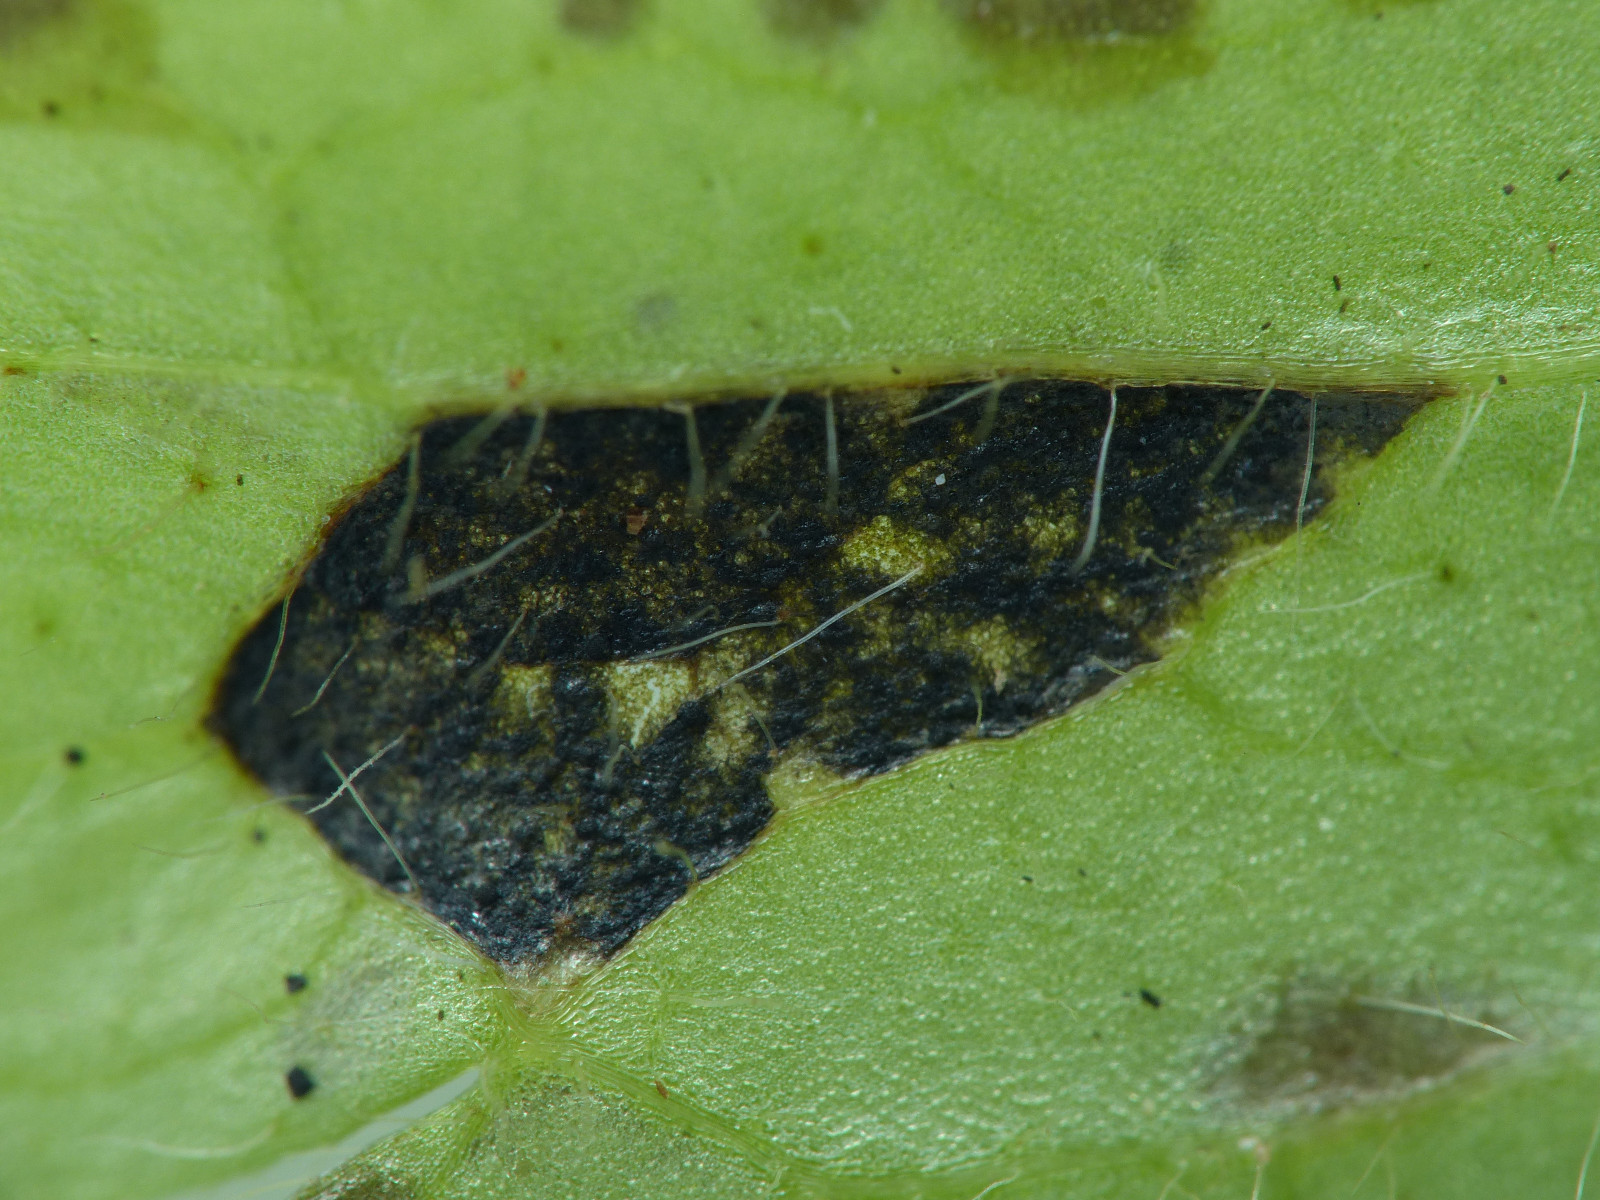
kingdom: Fungi
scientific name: Fungi
